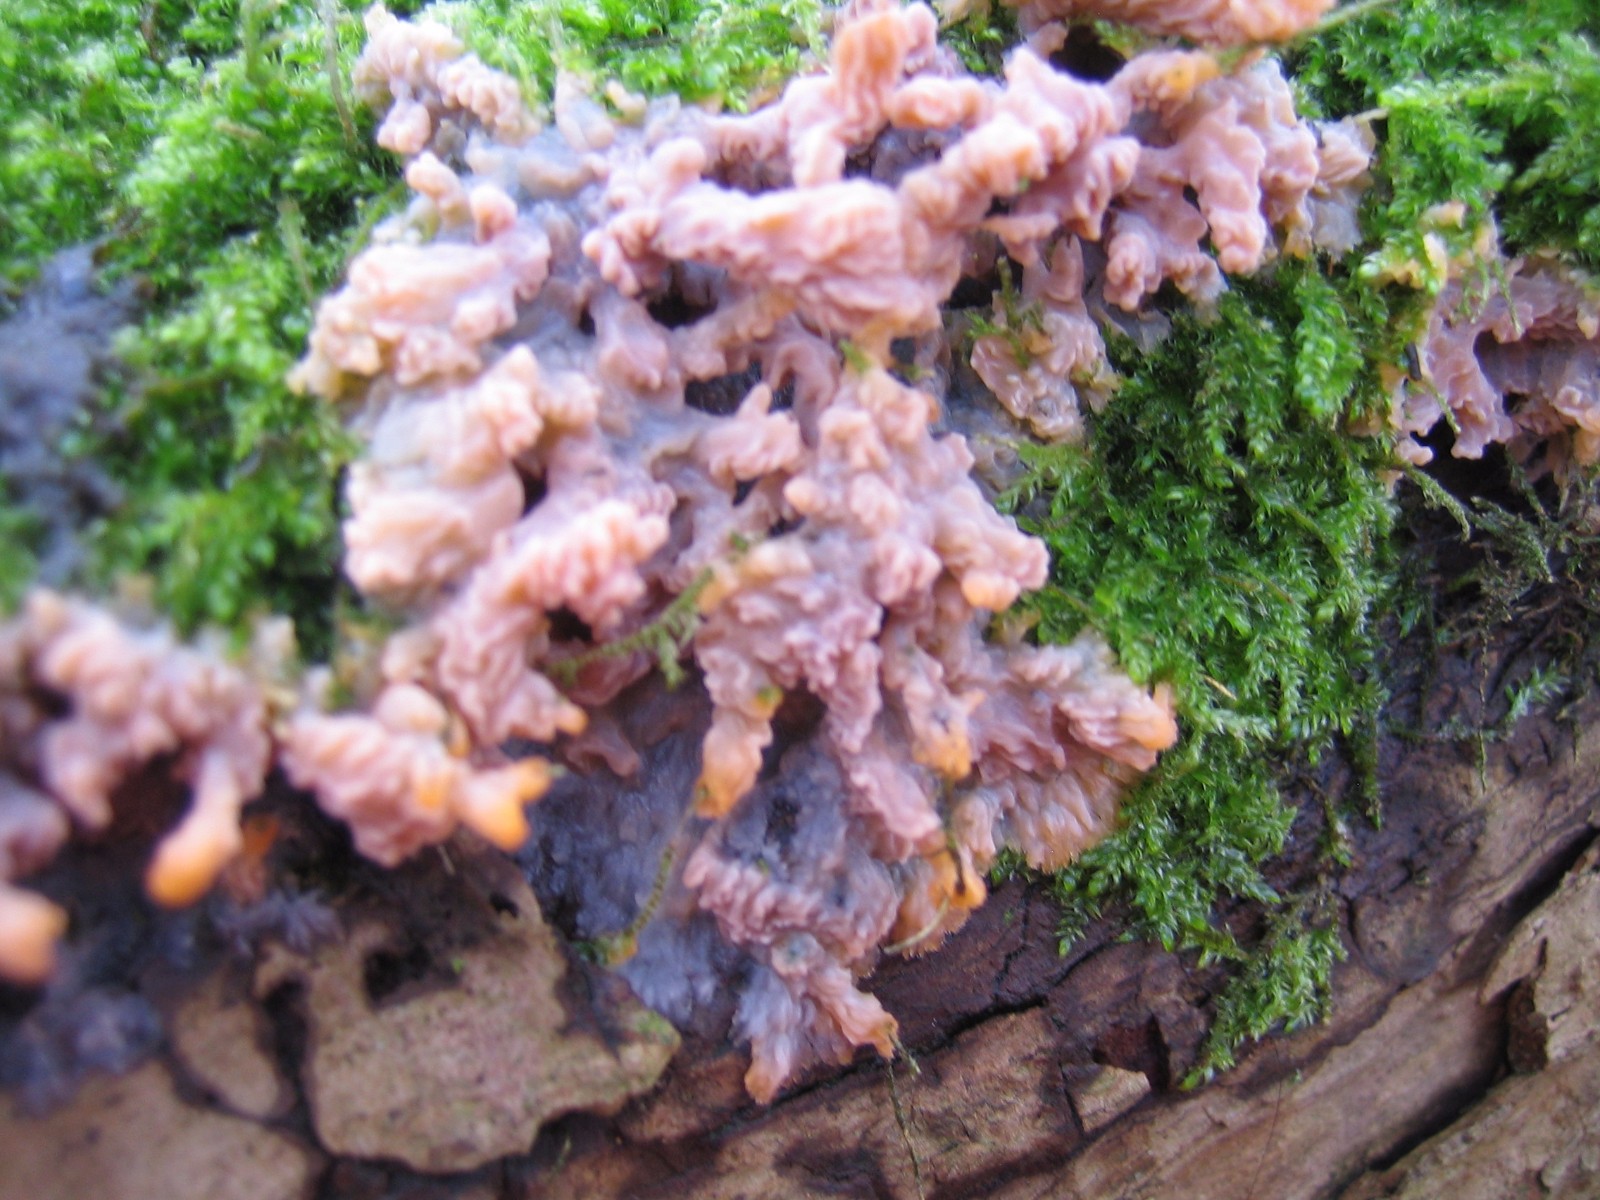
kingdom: Fungi
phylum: Basidiomycota
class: Agaricomycetes
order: Polyporales
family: Meruliaceae
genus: Phlebia
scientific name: Phlebia radiata
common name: stråle-åresvamp
